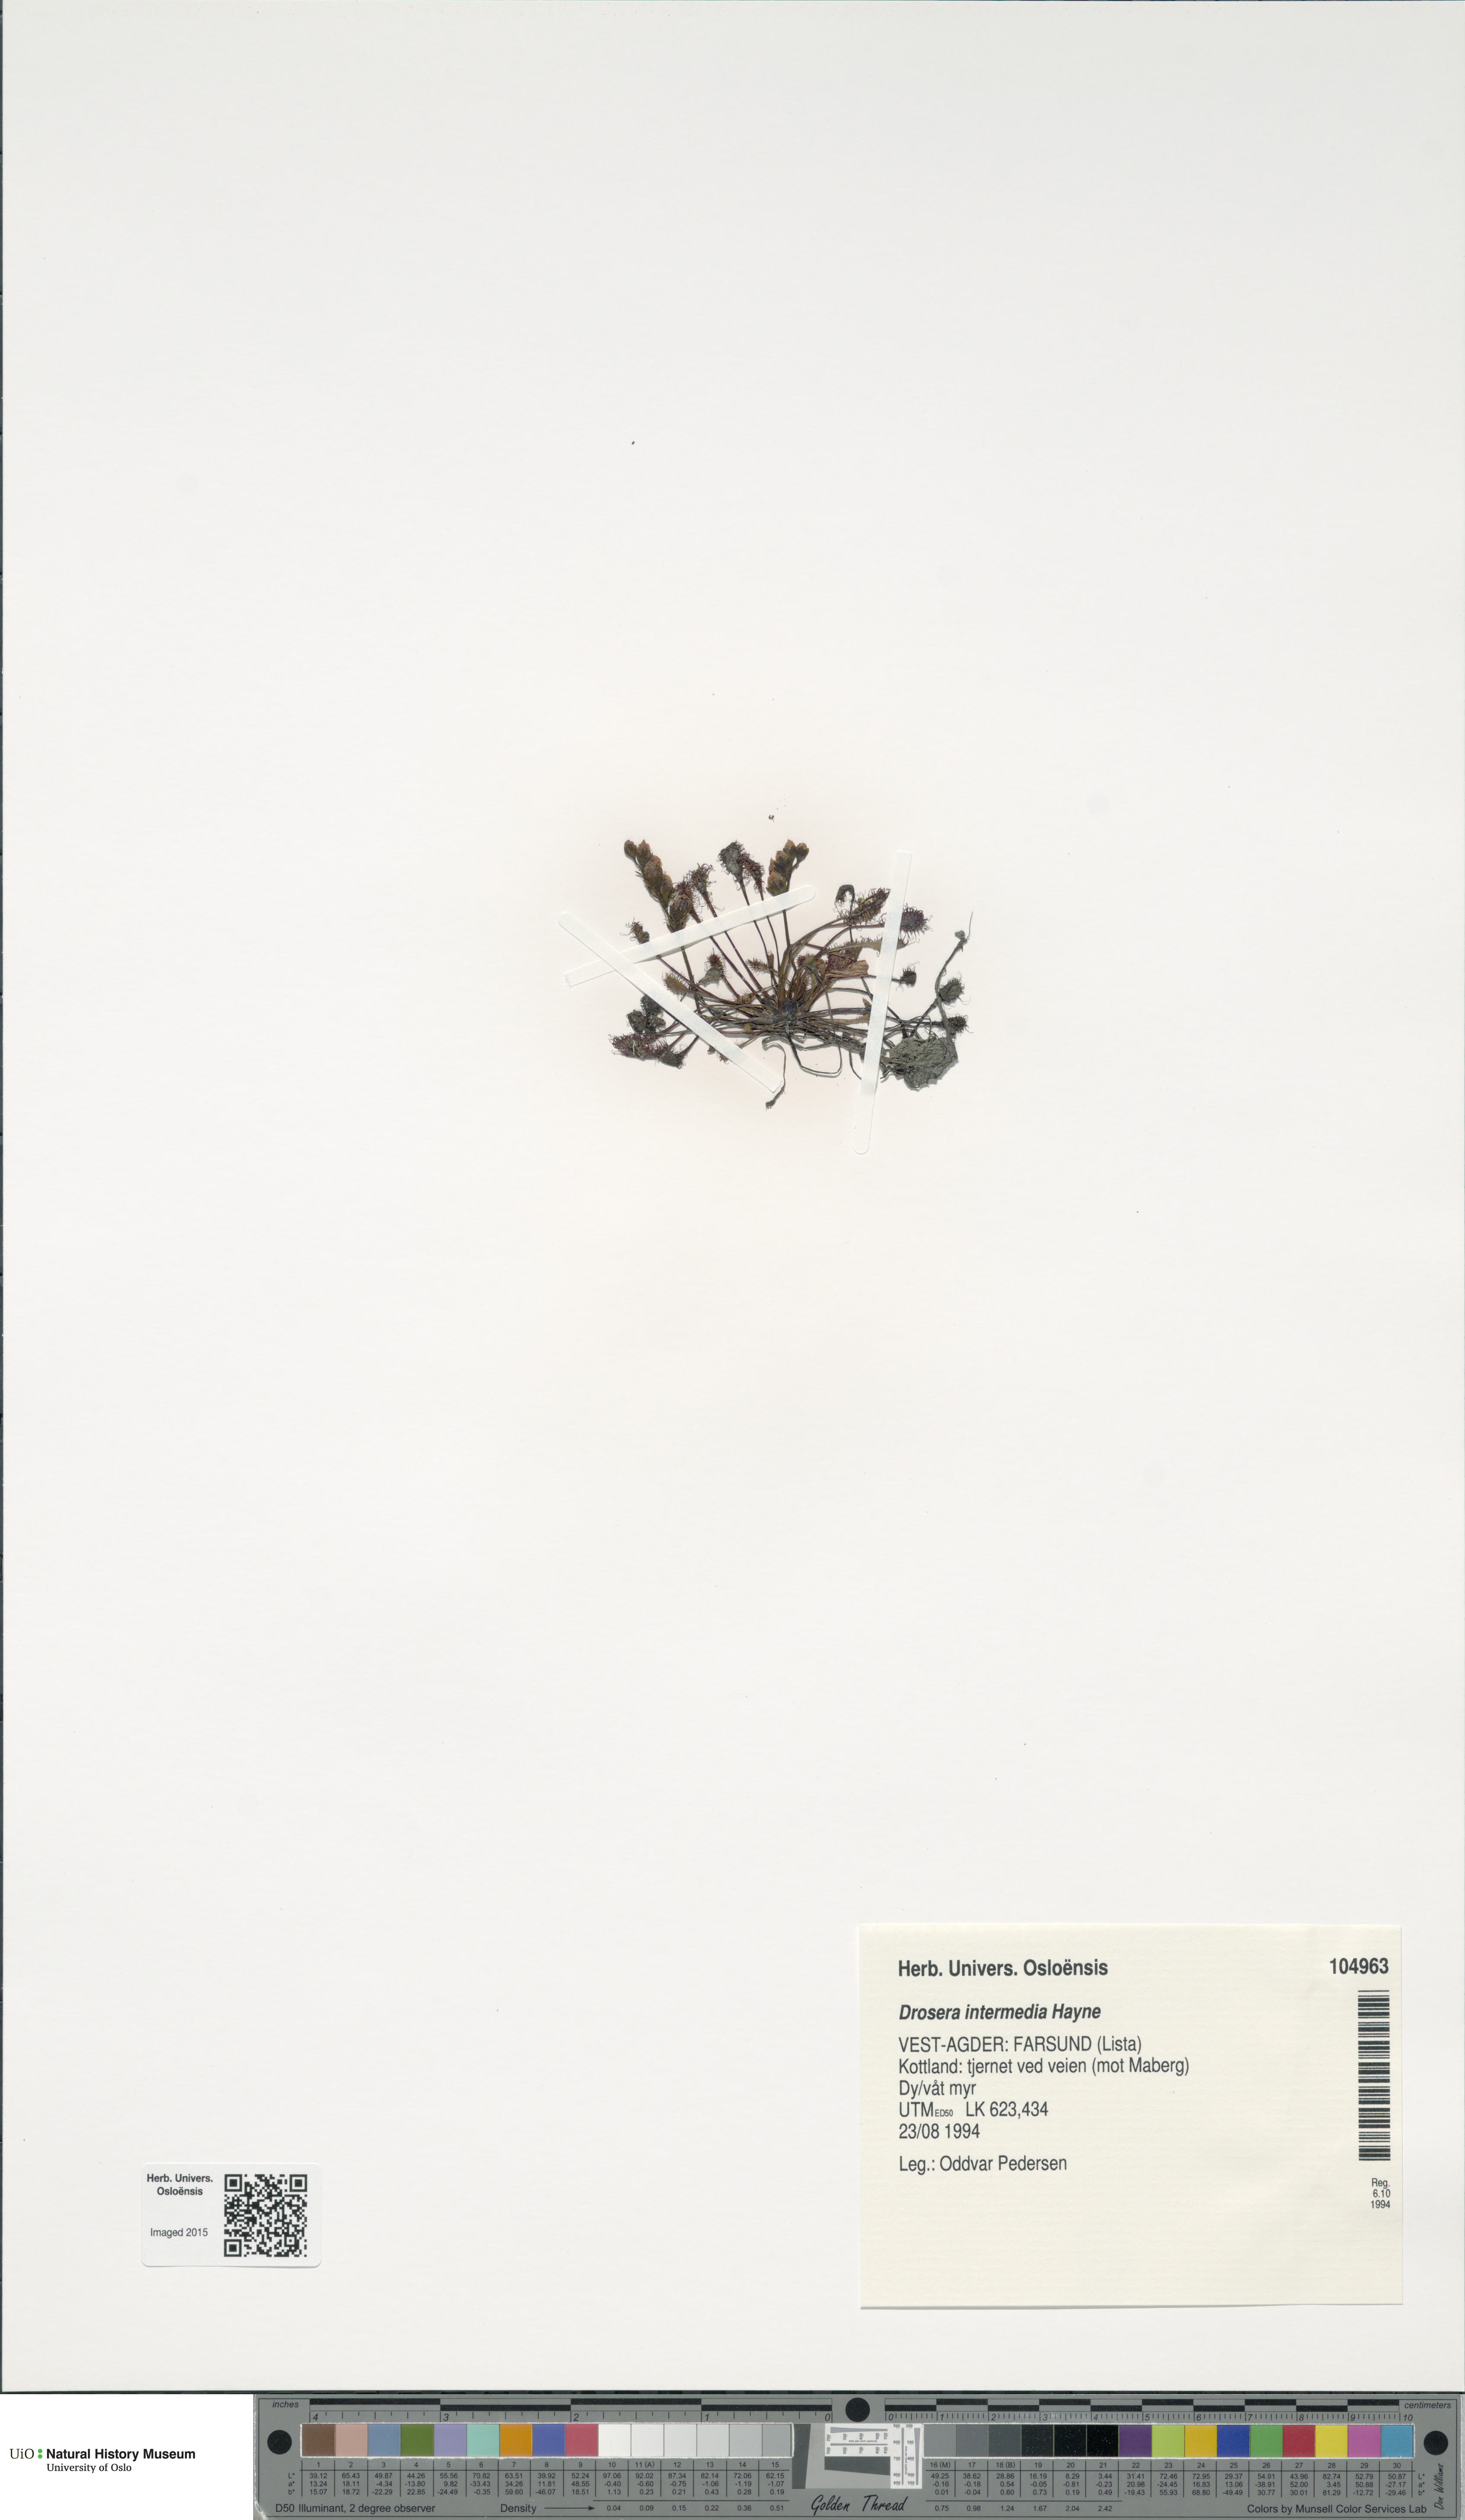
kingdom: Plantae
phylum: Tracheophyta
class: Magnoliopsida
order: Caryophyllales
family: Droseraceae
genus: Drosera
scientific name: Drosera intermedia
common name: Oblong-leaved sundew
